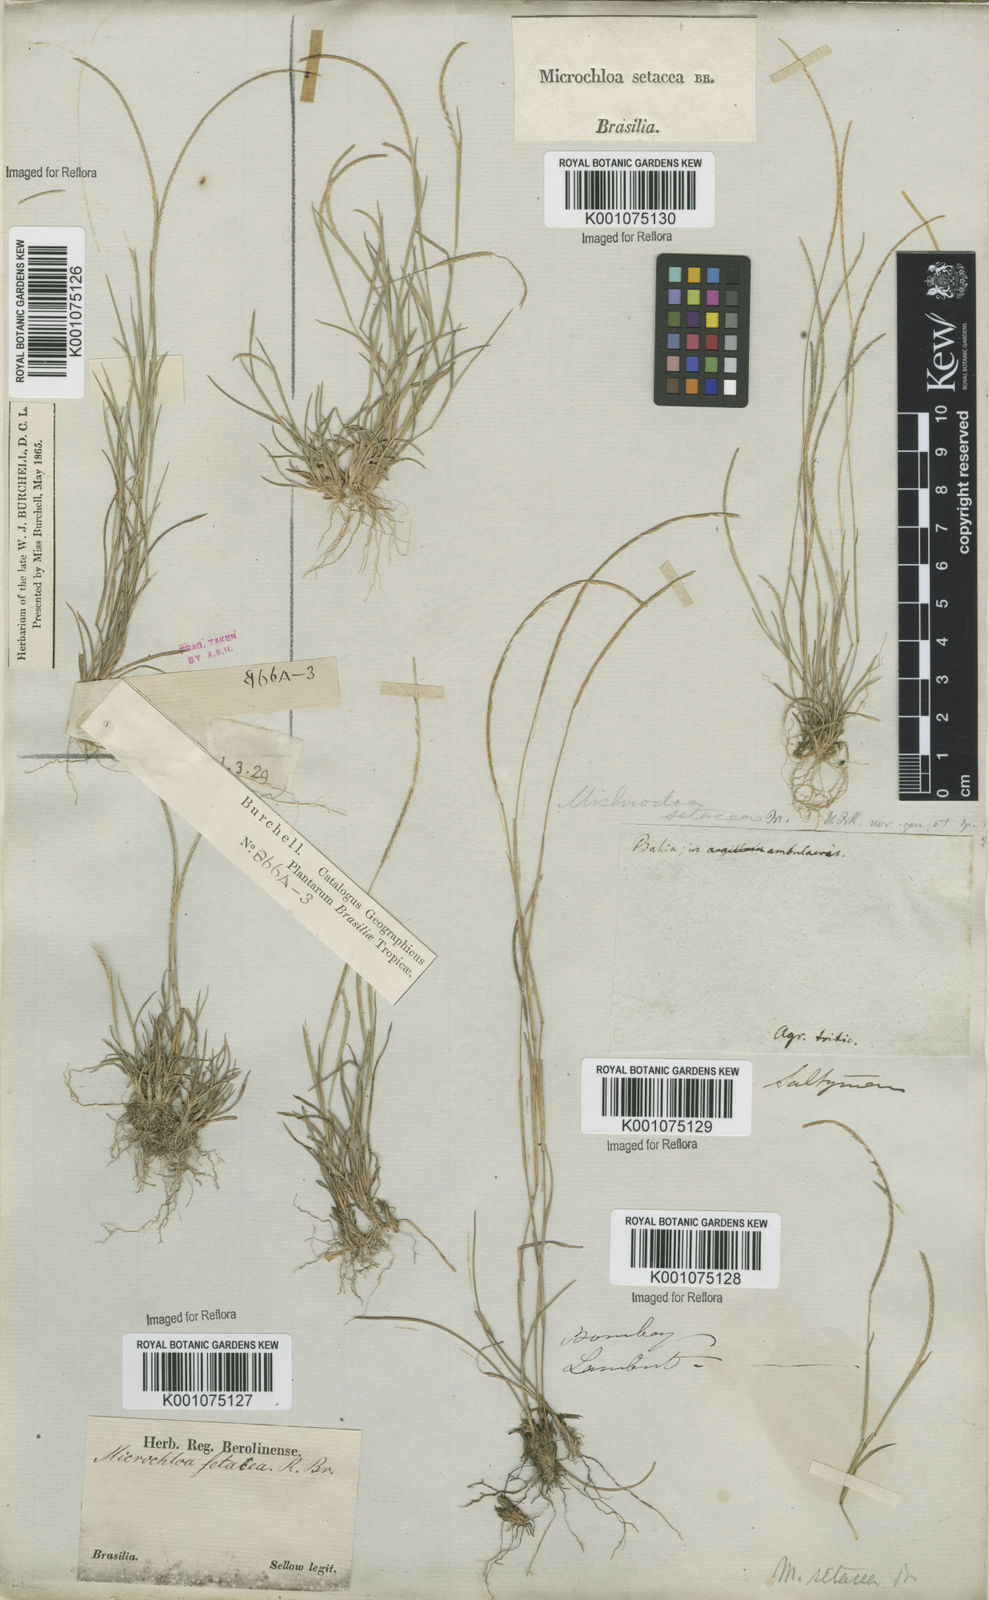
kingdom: Plantae
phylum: Tracheophyta
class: Liliopsida
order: Poales
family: Poaceae
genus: Microchloa
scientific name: Microchloa indica
